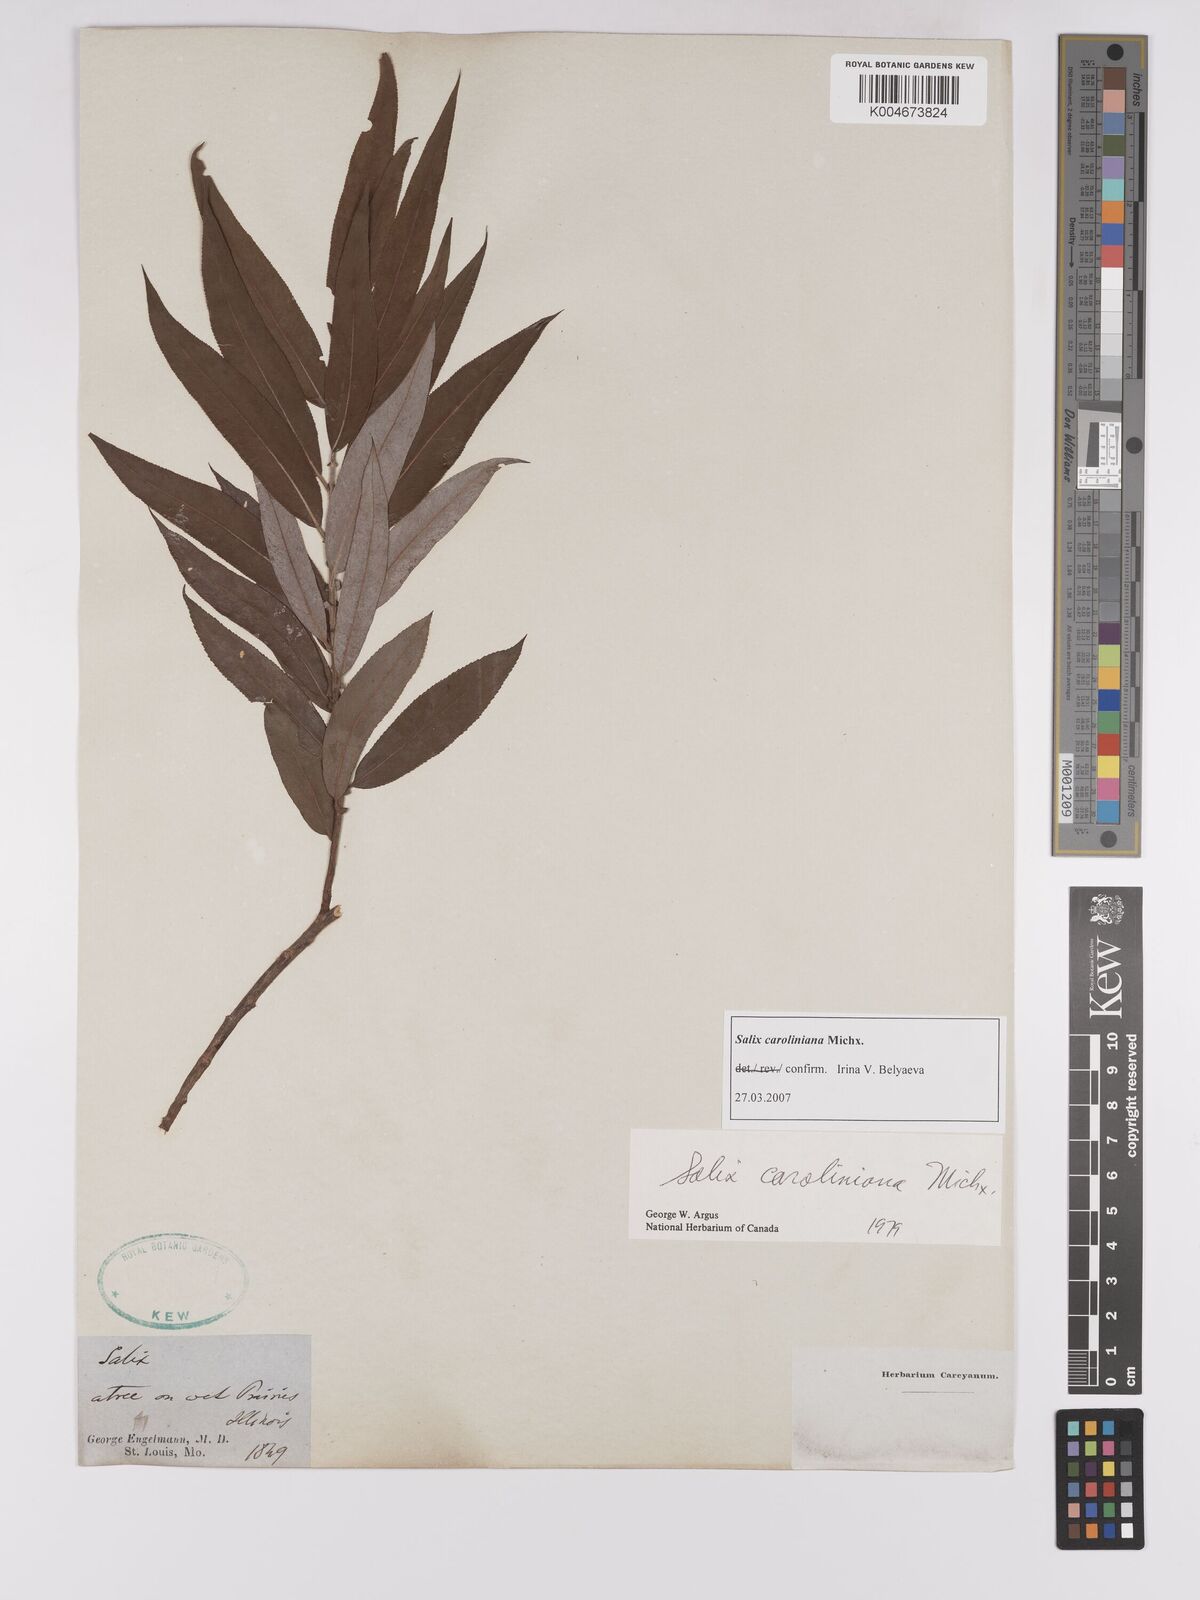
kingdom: Plantae
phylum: Tracheophyta
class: Magnoliopsida
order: Malpighiales
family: Salicaceae
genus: Salix
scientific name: Salix caroliniana
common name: Carolina willow
